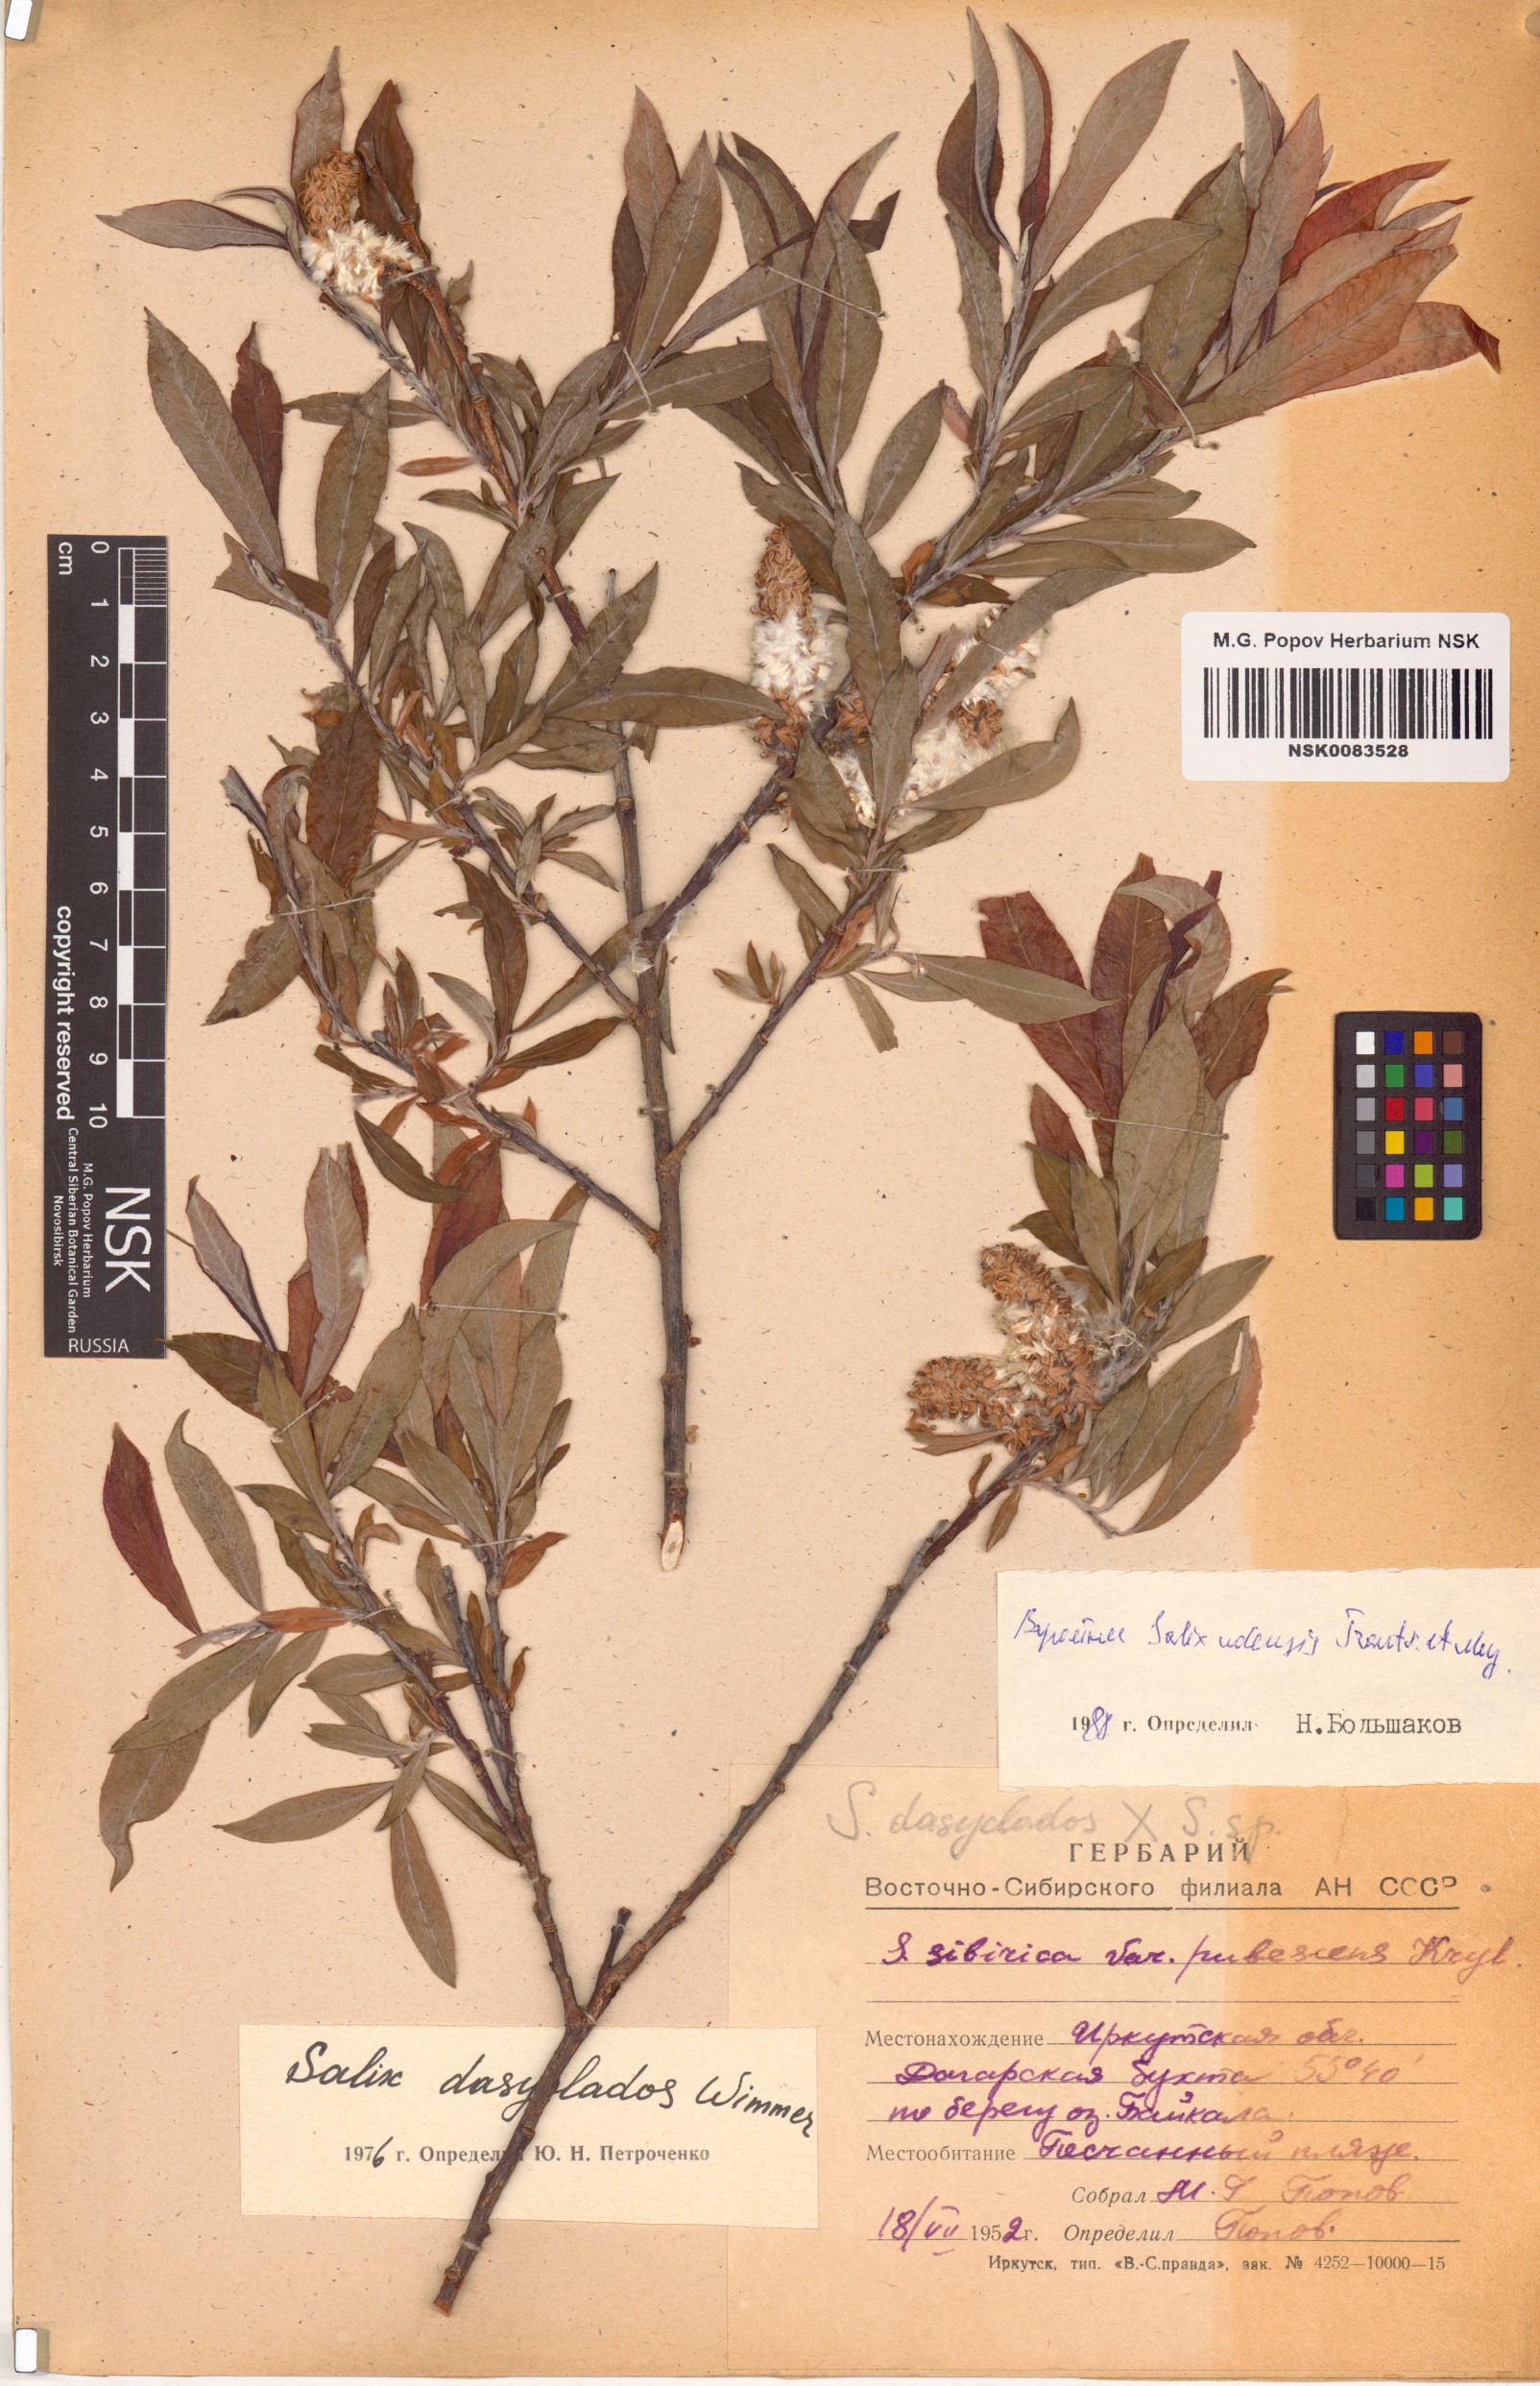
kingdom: Plantae
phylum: Tracheophyta
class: Magnoliopsida
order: Malpighiales
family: Salicaceae
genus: Salix
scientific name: Salix udensis
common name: Sachalin willow
